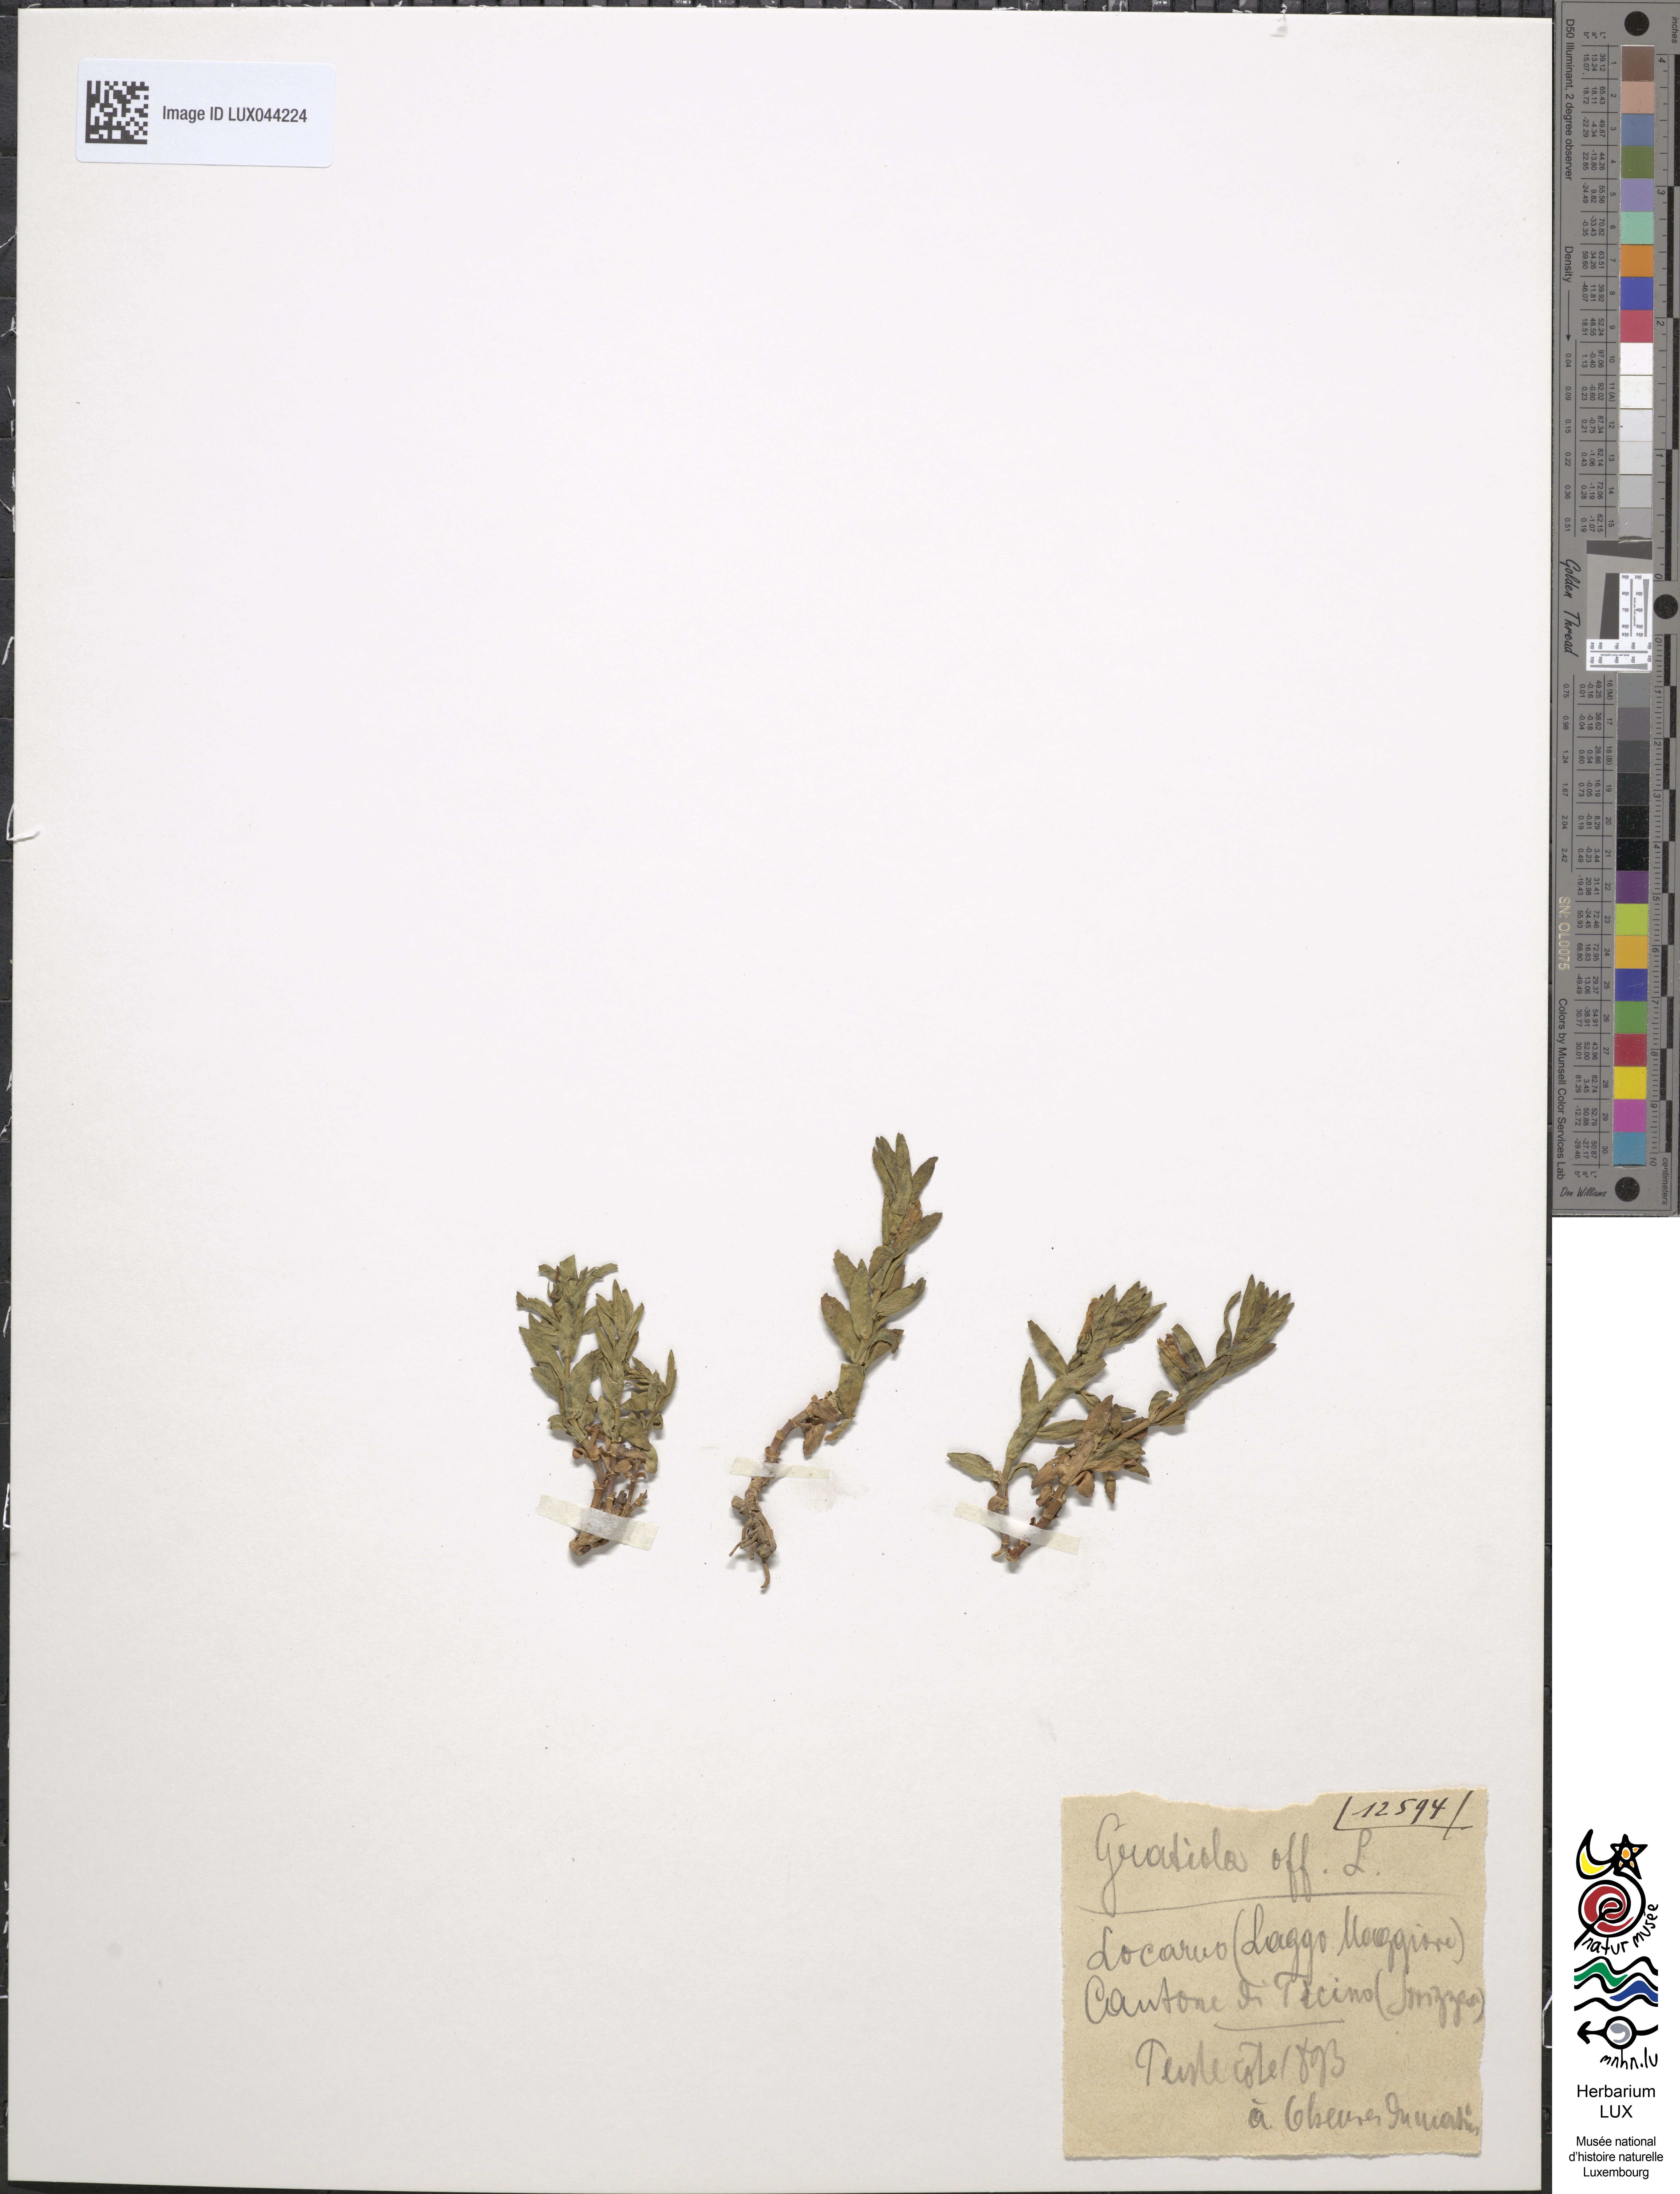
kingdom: Plantae
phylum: Tracheophyta
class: Magnoliopsida
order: Lamiales
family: Plantaginaceae
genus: Gratiola
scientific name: Gratiola officinalis
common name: Gratiola
